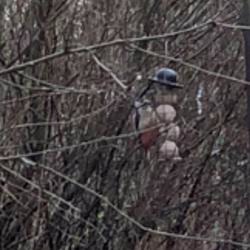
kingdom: Animalia
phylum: Chordata
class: Aves
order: Piciformes
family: Picidae
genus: Dendrocopos
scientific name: Dendrocopos major
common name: Stor flagspætte
